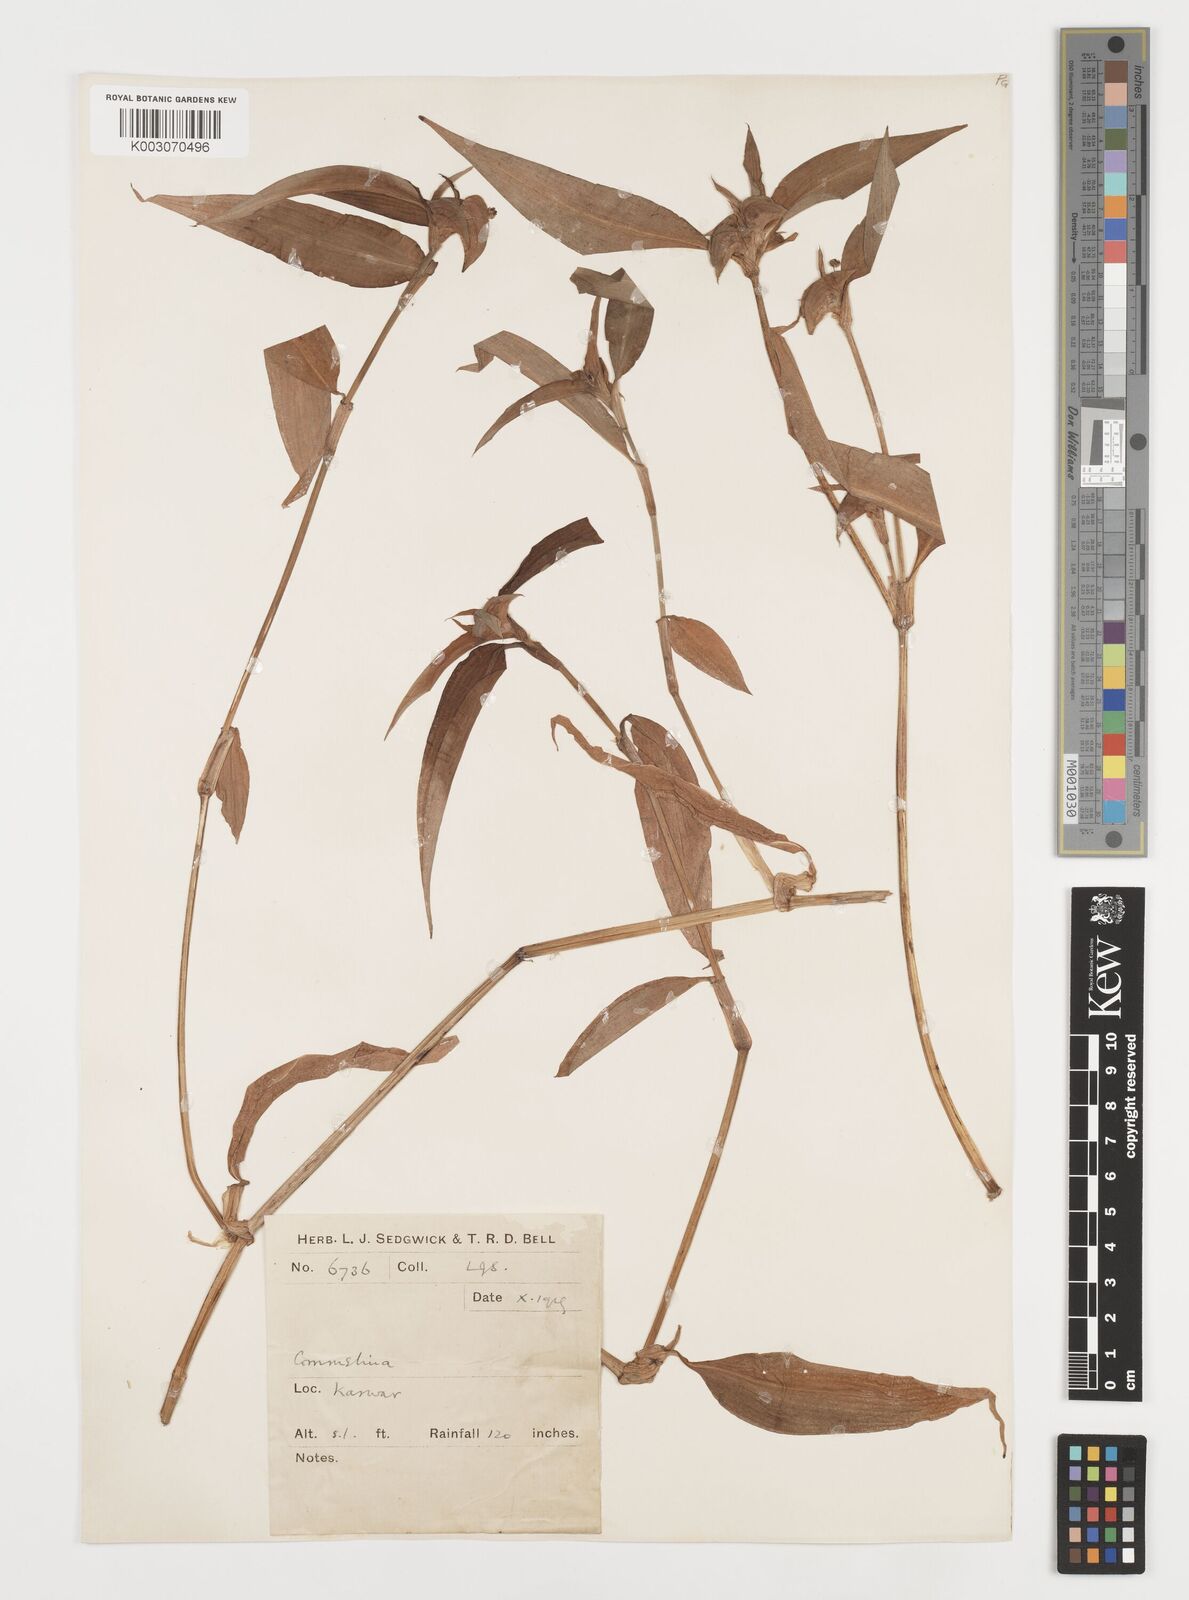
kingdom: Plantae
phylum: Tracheophyta
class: Liliopsida
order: Commelinales
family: Commelinaceae
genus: Commelina
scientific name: Commelina
